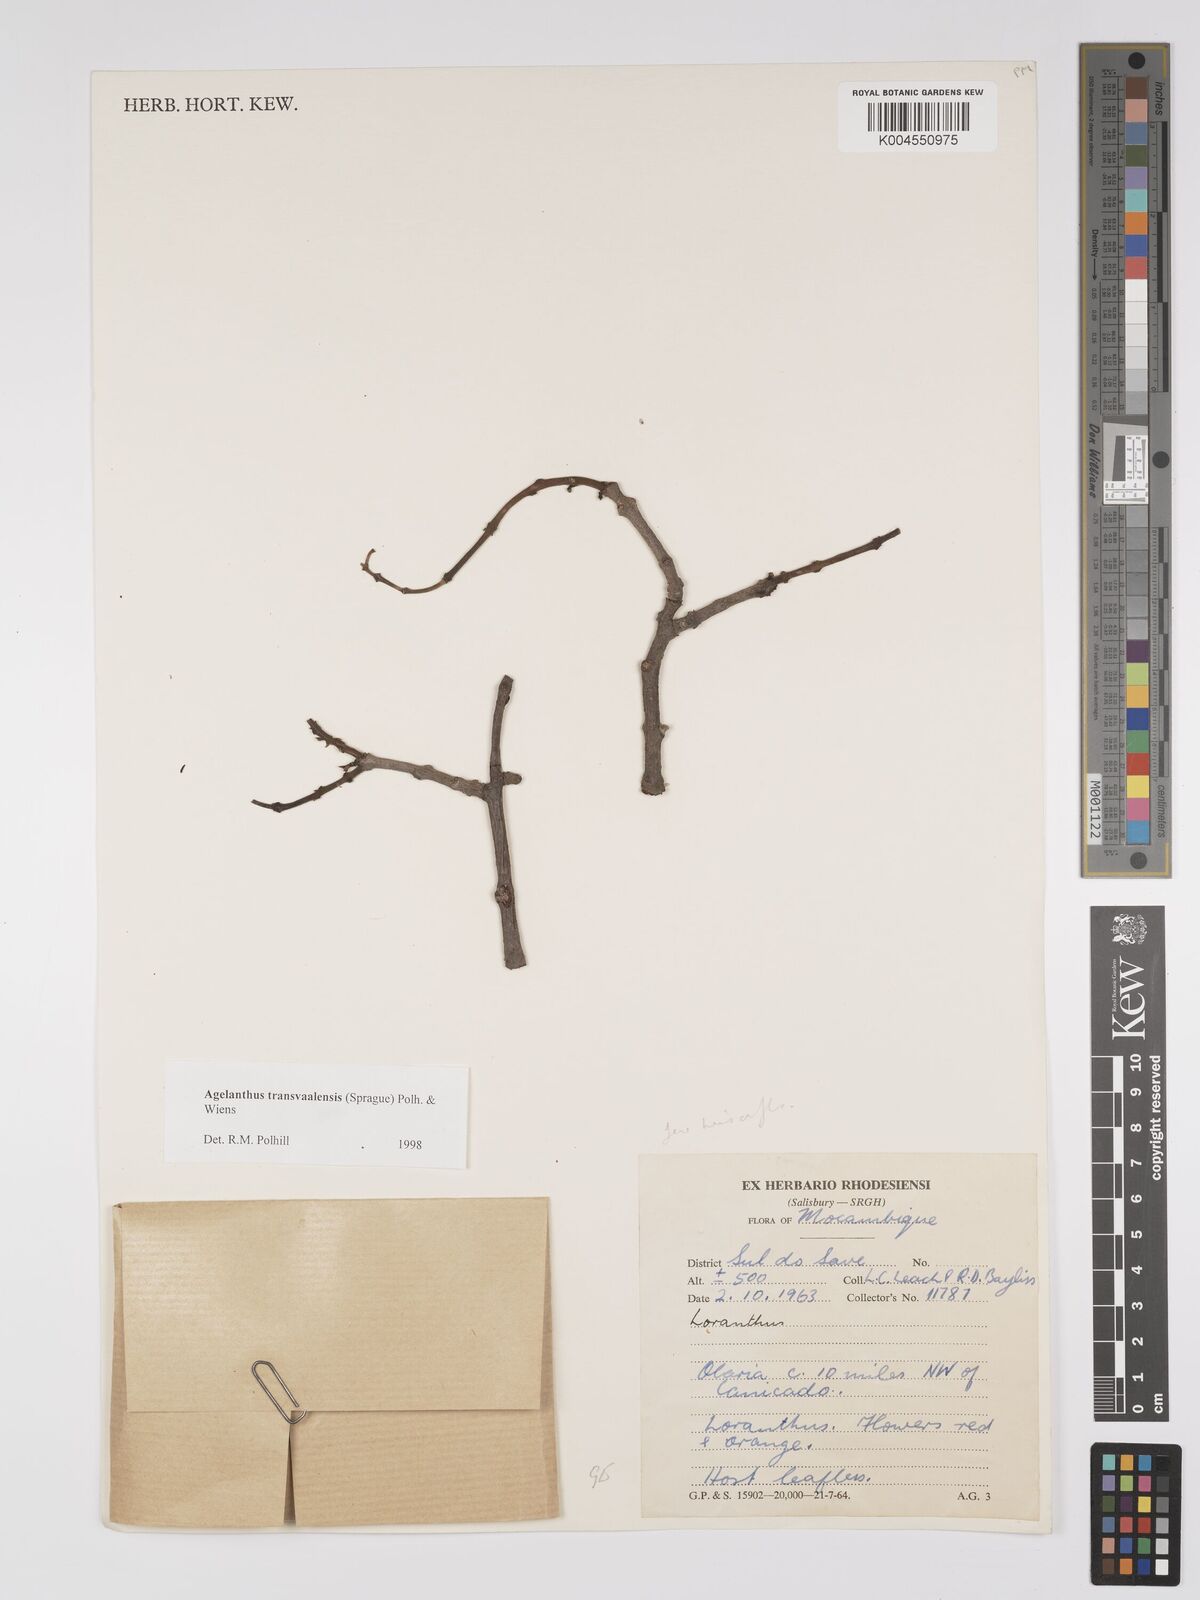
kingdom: Plantae
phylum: Tracheophyta
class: Magnoliopsida
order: Santalales
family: Loranthaceae
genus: Agelanthus
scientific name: Agelanthus transvaalensis
